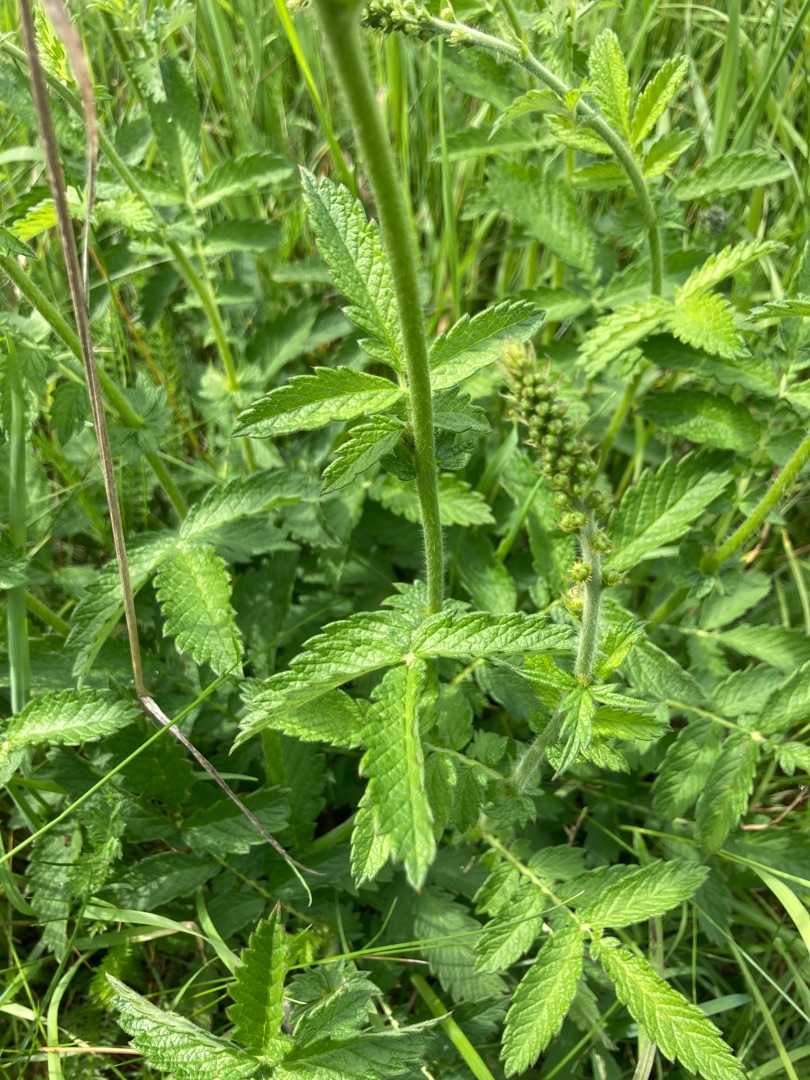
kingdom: Plantae
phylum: Tracheophyta
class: Magnoliopsida
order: Rosales
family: Rosaceae
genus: Agrimonia
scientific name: Agrimonia eupatoria
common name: Almindelig agermåne
